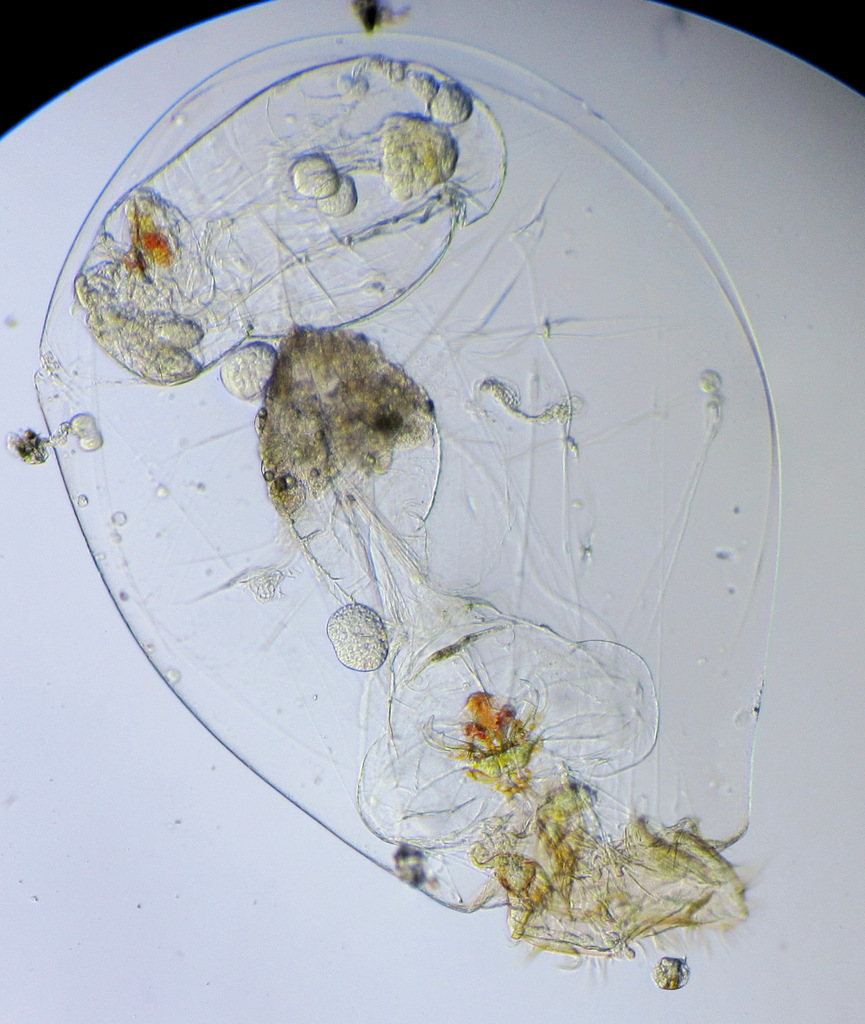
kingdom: Animalia
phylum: Rotifera
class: Eurotatoria
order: Ploima
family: Asplanchnidae
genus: Asplanchna
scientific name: Asplanchna priodonta
